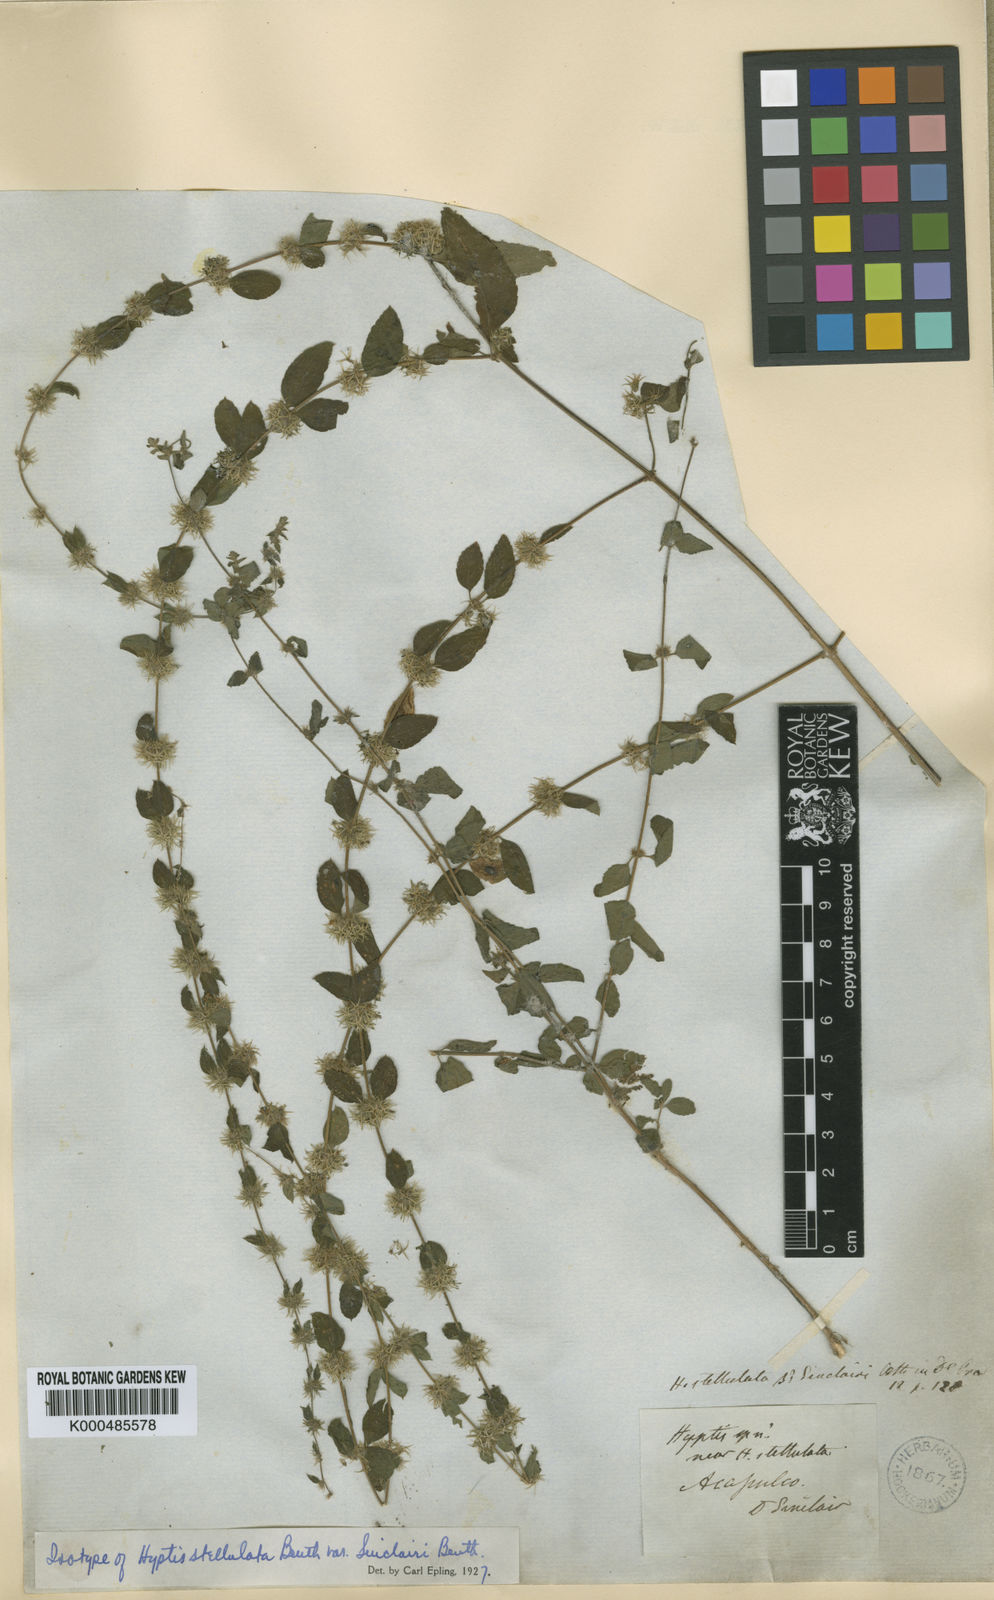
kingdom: Plantae
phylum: Tracheophyta
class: Magnoliopsida
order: Lamiales
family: Lamiaceae
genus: Asterohyptis
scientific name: Asterohyptis
